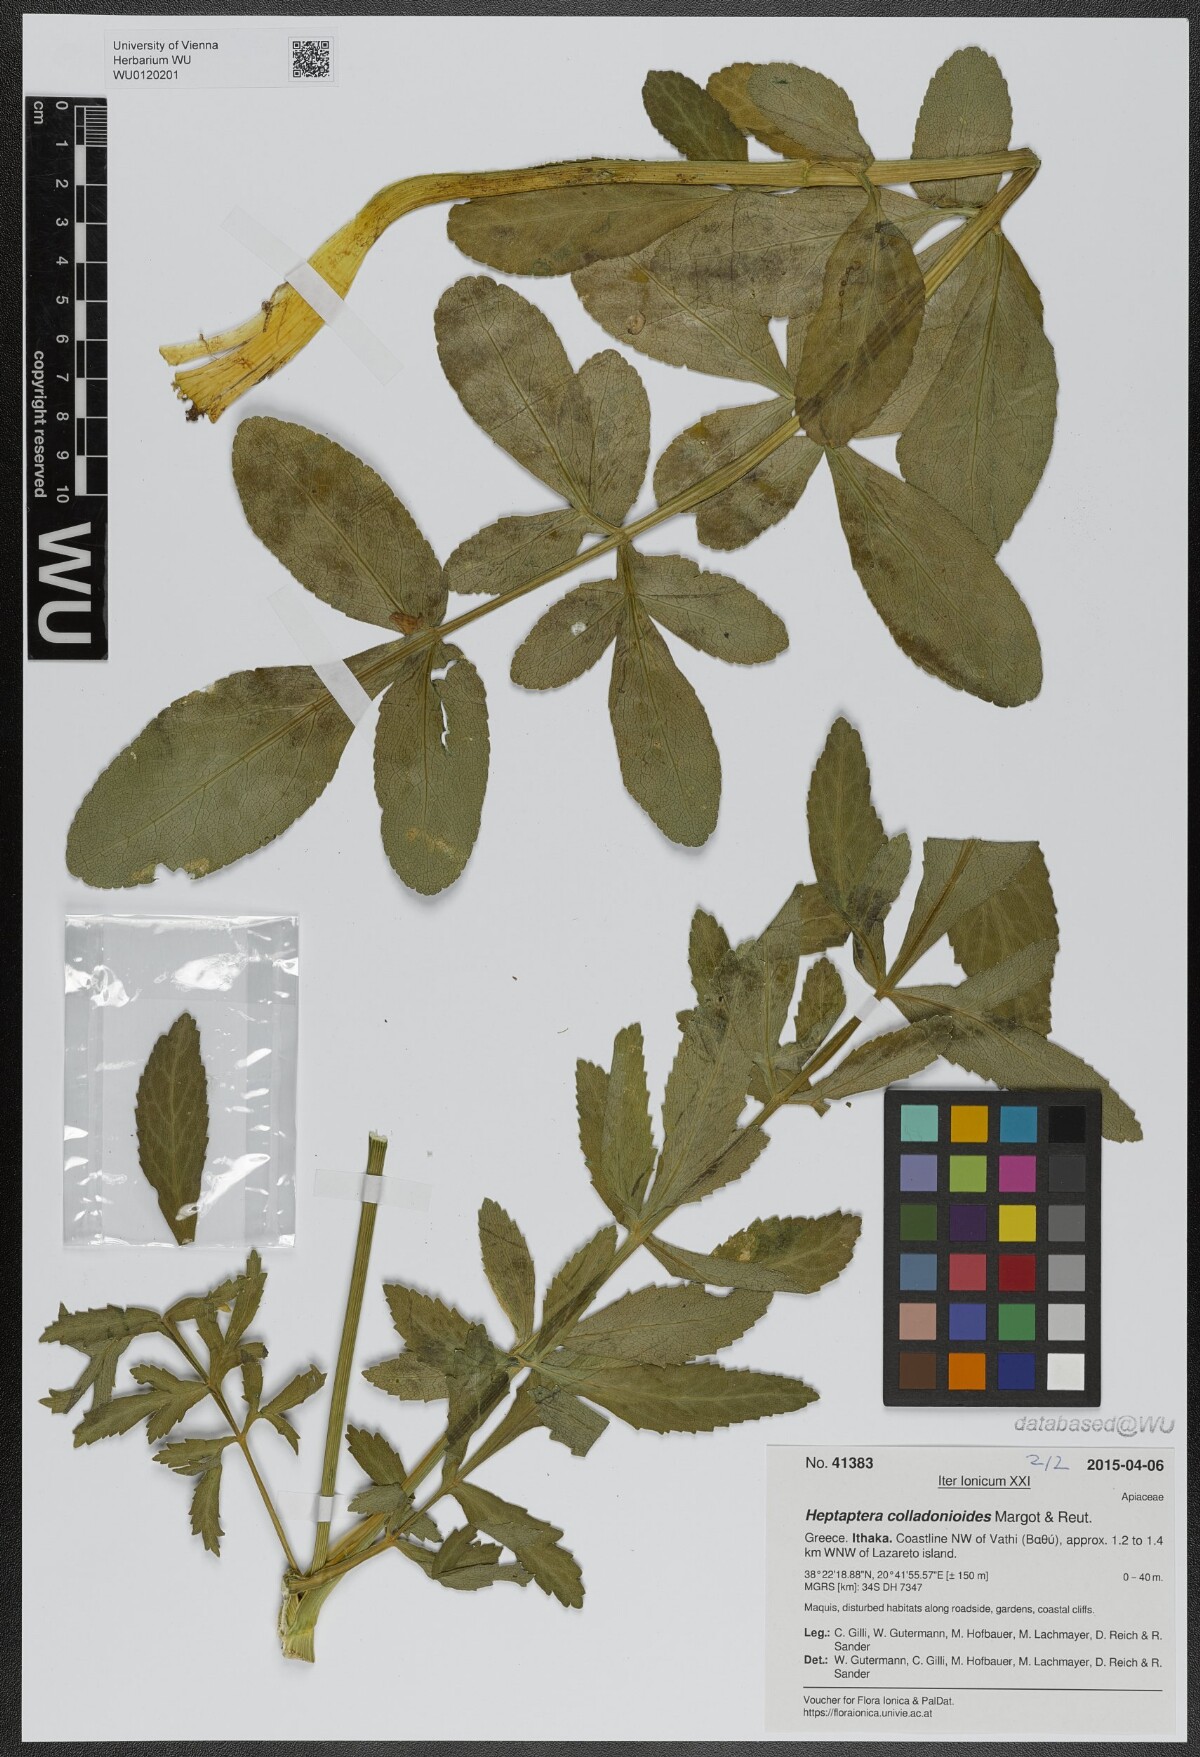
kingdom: Plantae
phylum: Tracheophyta
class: Magnoliopsida
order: Apiales
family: Apiaceae
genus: Heptaptera
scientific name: Heptaptera colladonioides
